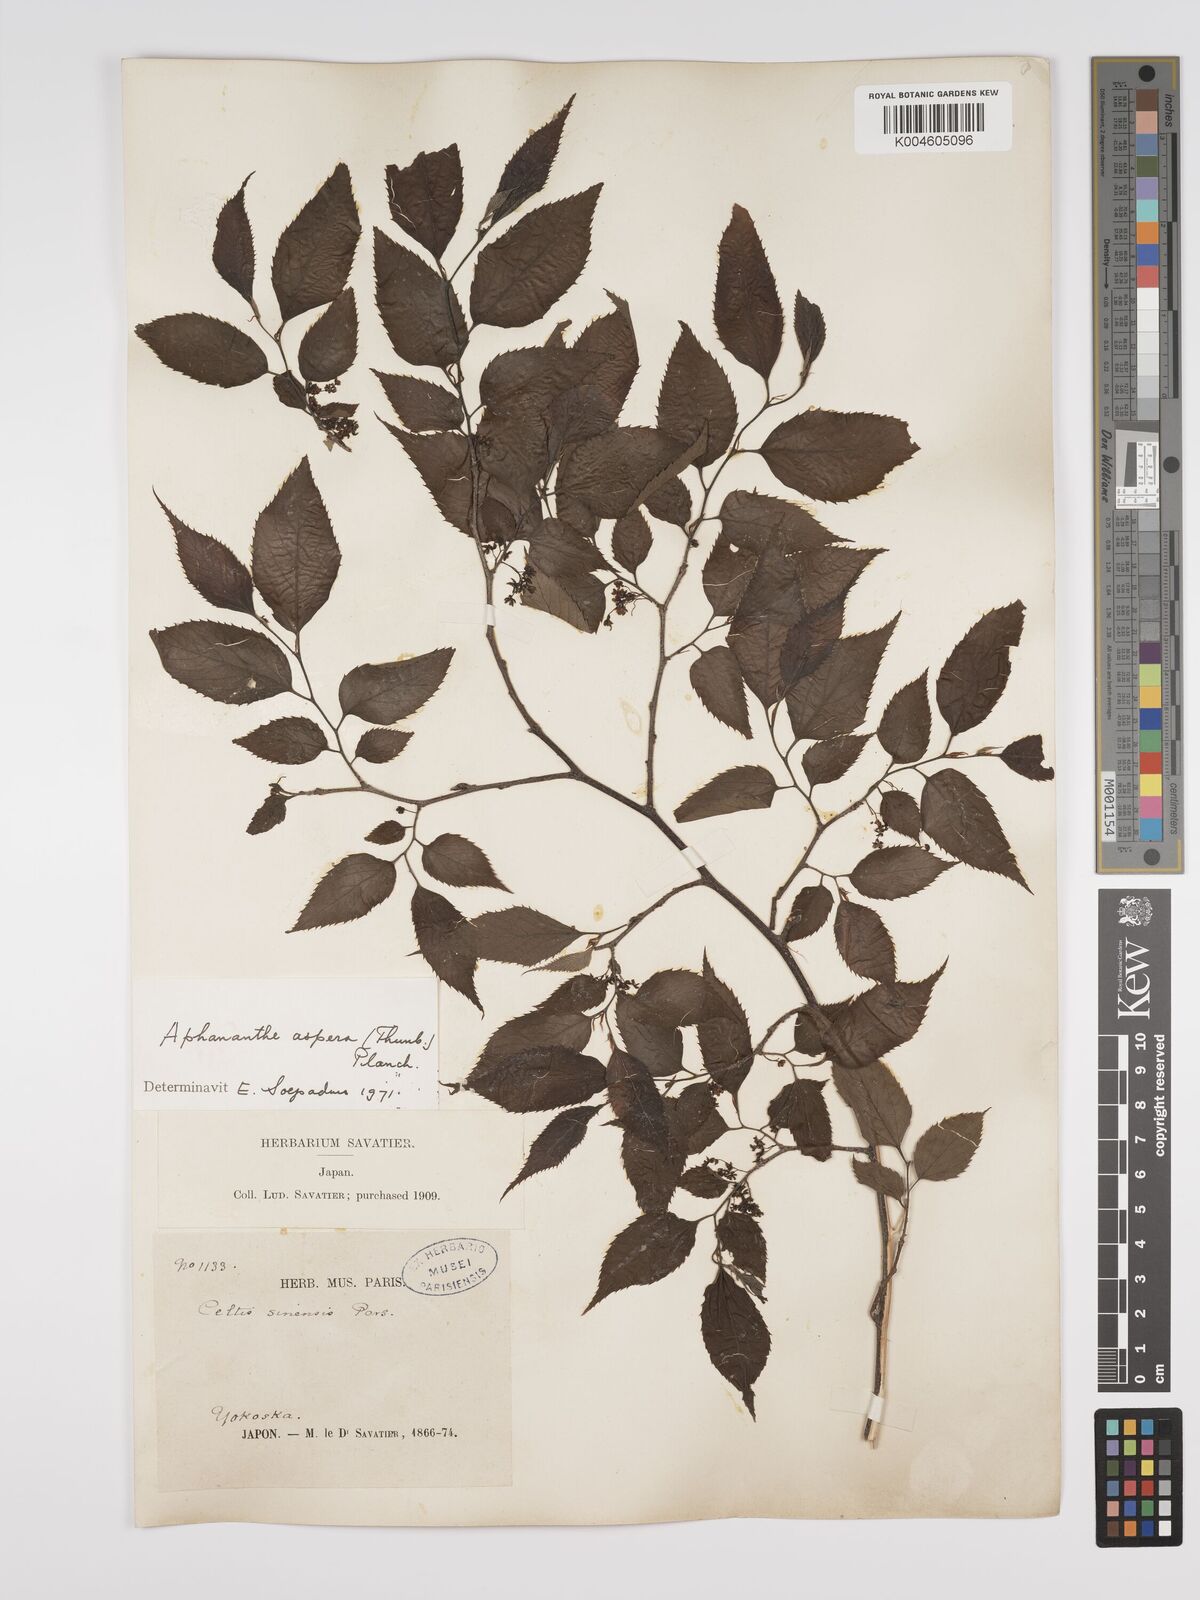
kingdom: Plantae
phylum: Tracheophyta
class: Magnoliopsida
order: Rosales
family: Cannabaceae
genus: Aphananthe
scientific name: Aphananthe aspera
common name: Mukutree
